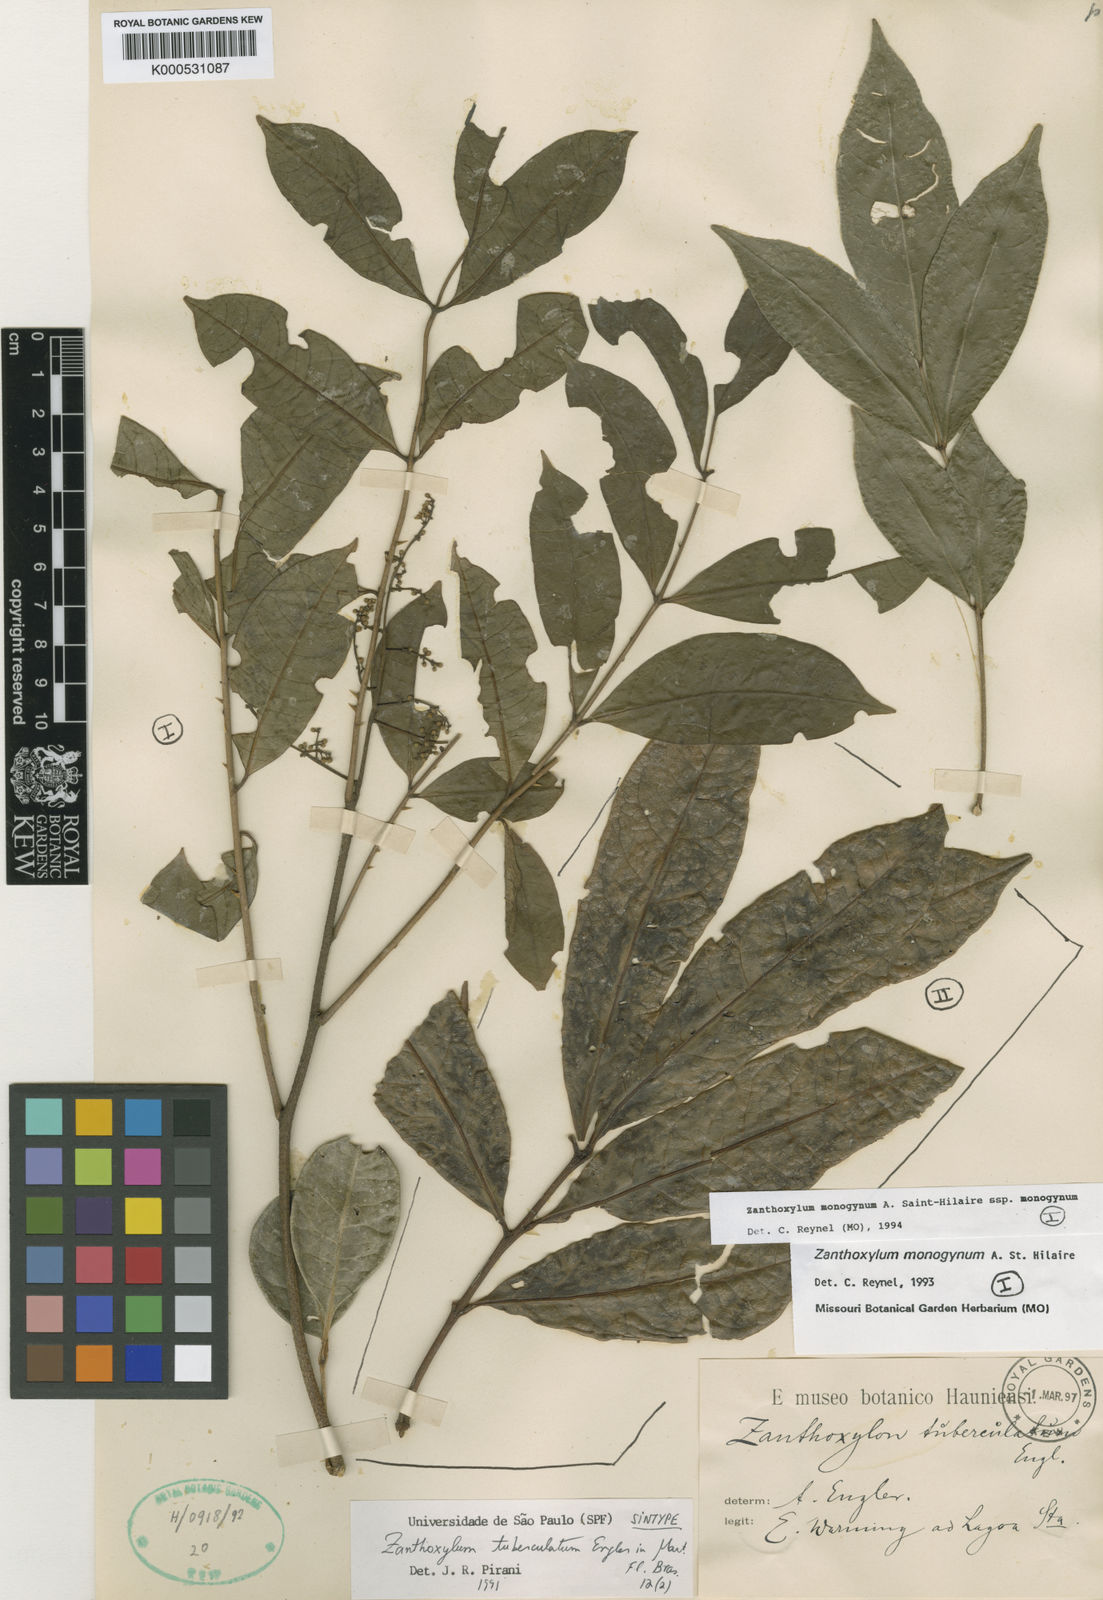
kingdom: Plantae
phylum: Tracheophyta
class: Magnoliopsida
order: Sapindales
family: Rutaceae
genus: Zanthoxylum
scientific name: Zanthoxylum monogynum
